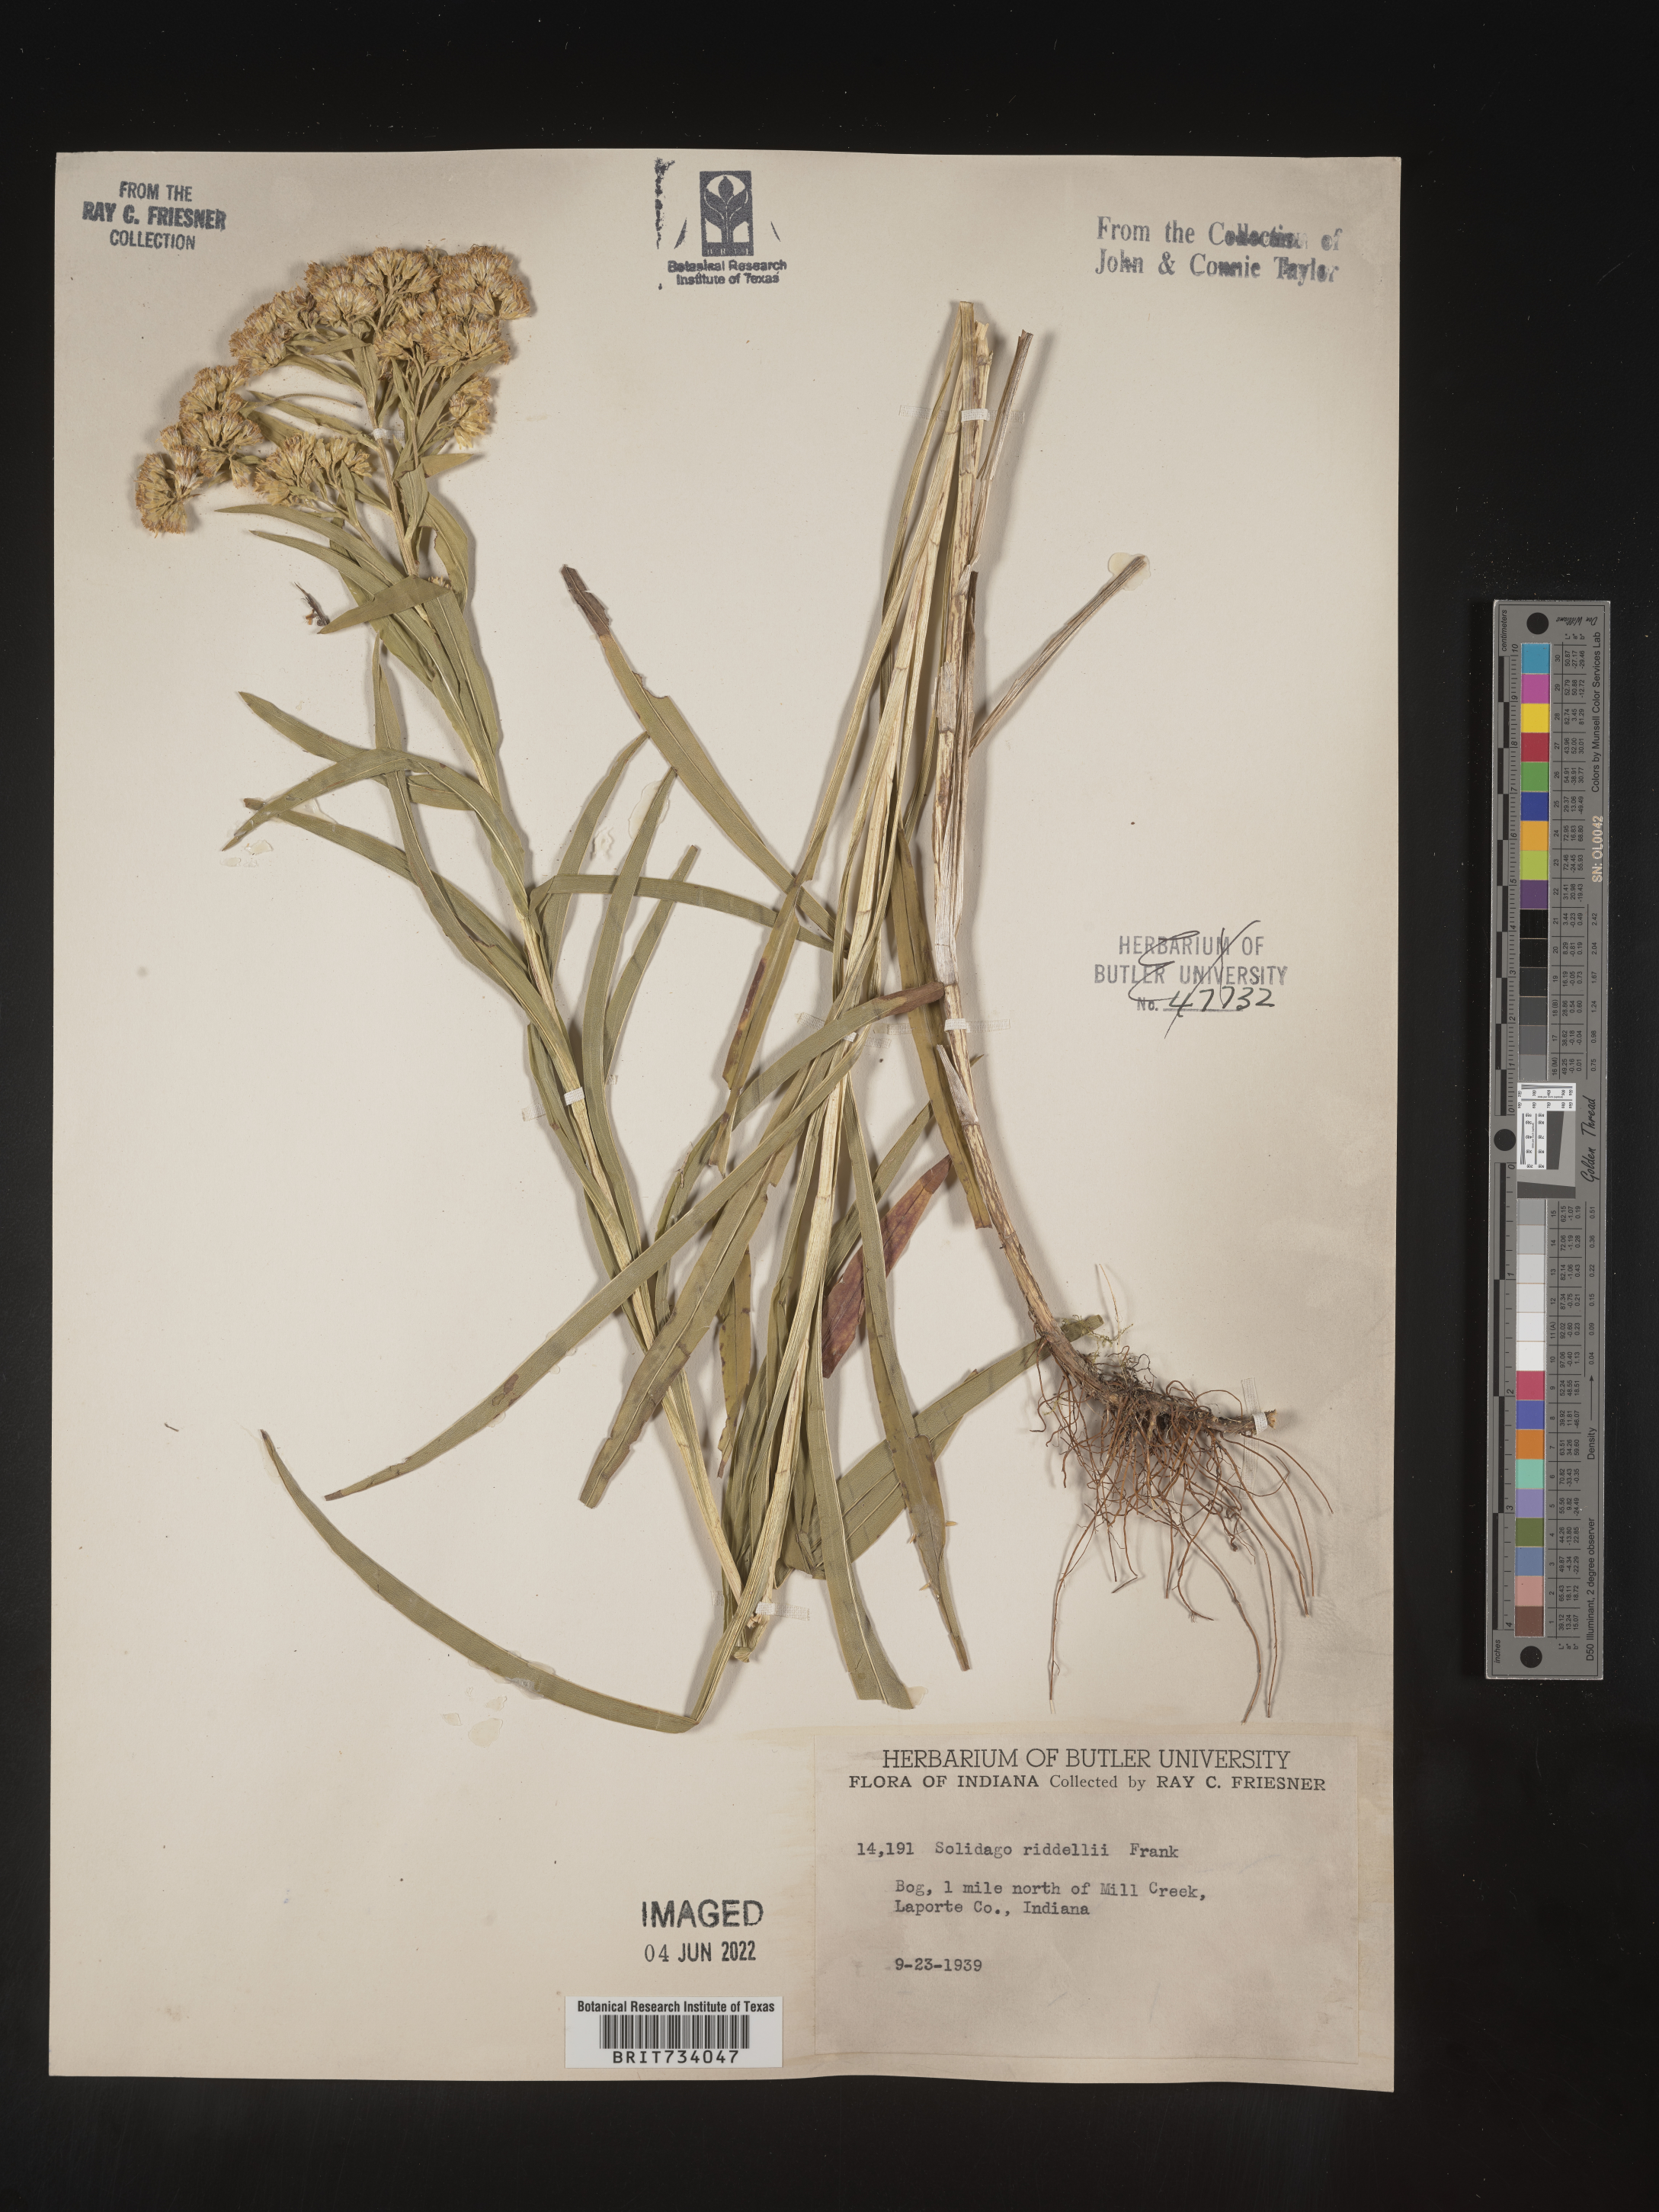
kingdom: Plantae
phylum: Tracheophyta
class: Magnoliopsida
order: Asterales
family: Asteraceae
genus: Solidago
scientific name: Solidago riddellii
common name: Riddell's goldenrod
